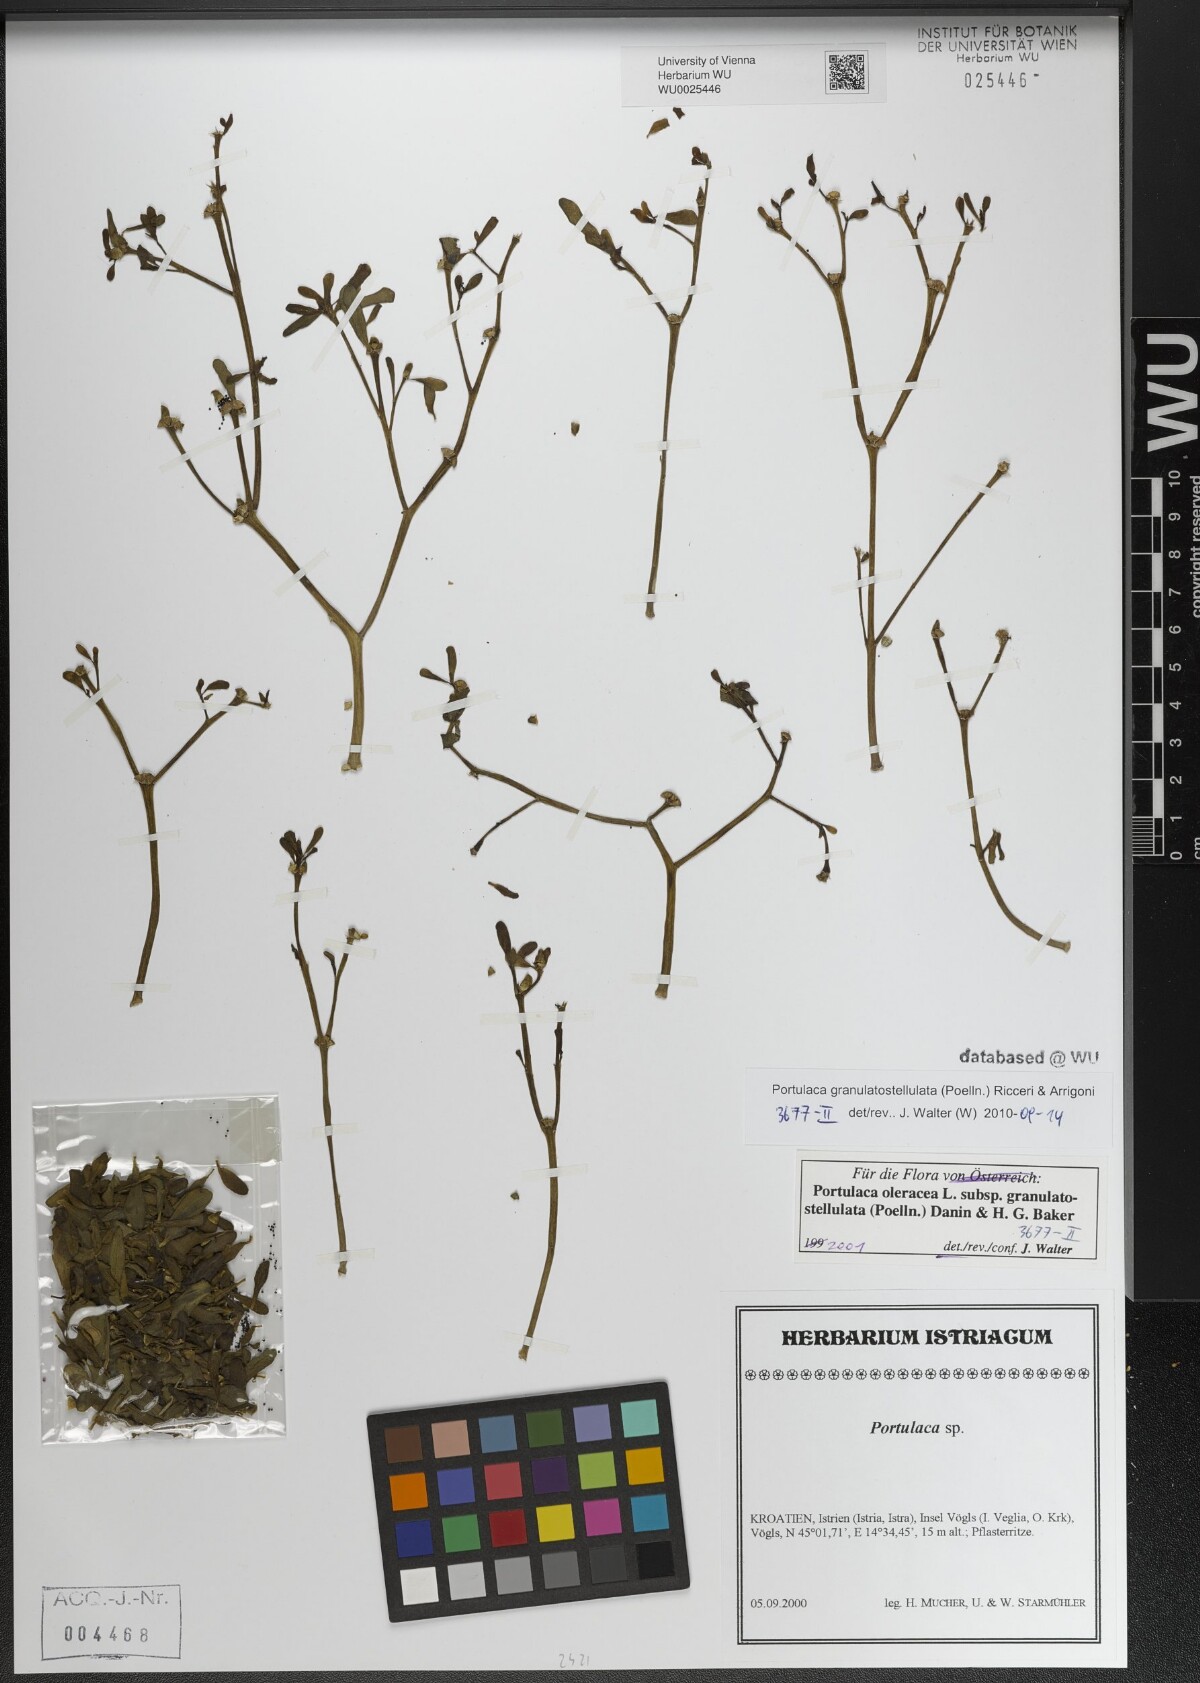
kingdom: Plantae
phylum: Tracheophyta
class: Magnoliopsida
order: Caryophyllales
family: Portulacaceae
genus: Portulaca
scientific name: Portulaca granulatostellulata
